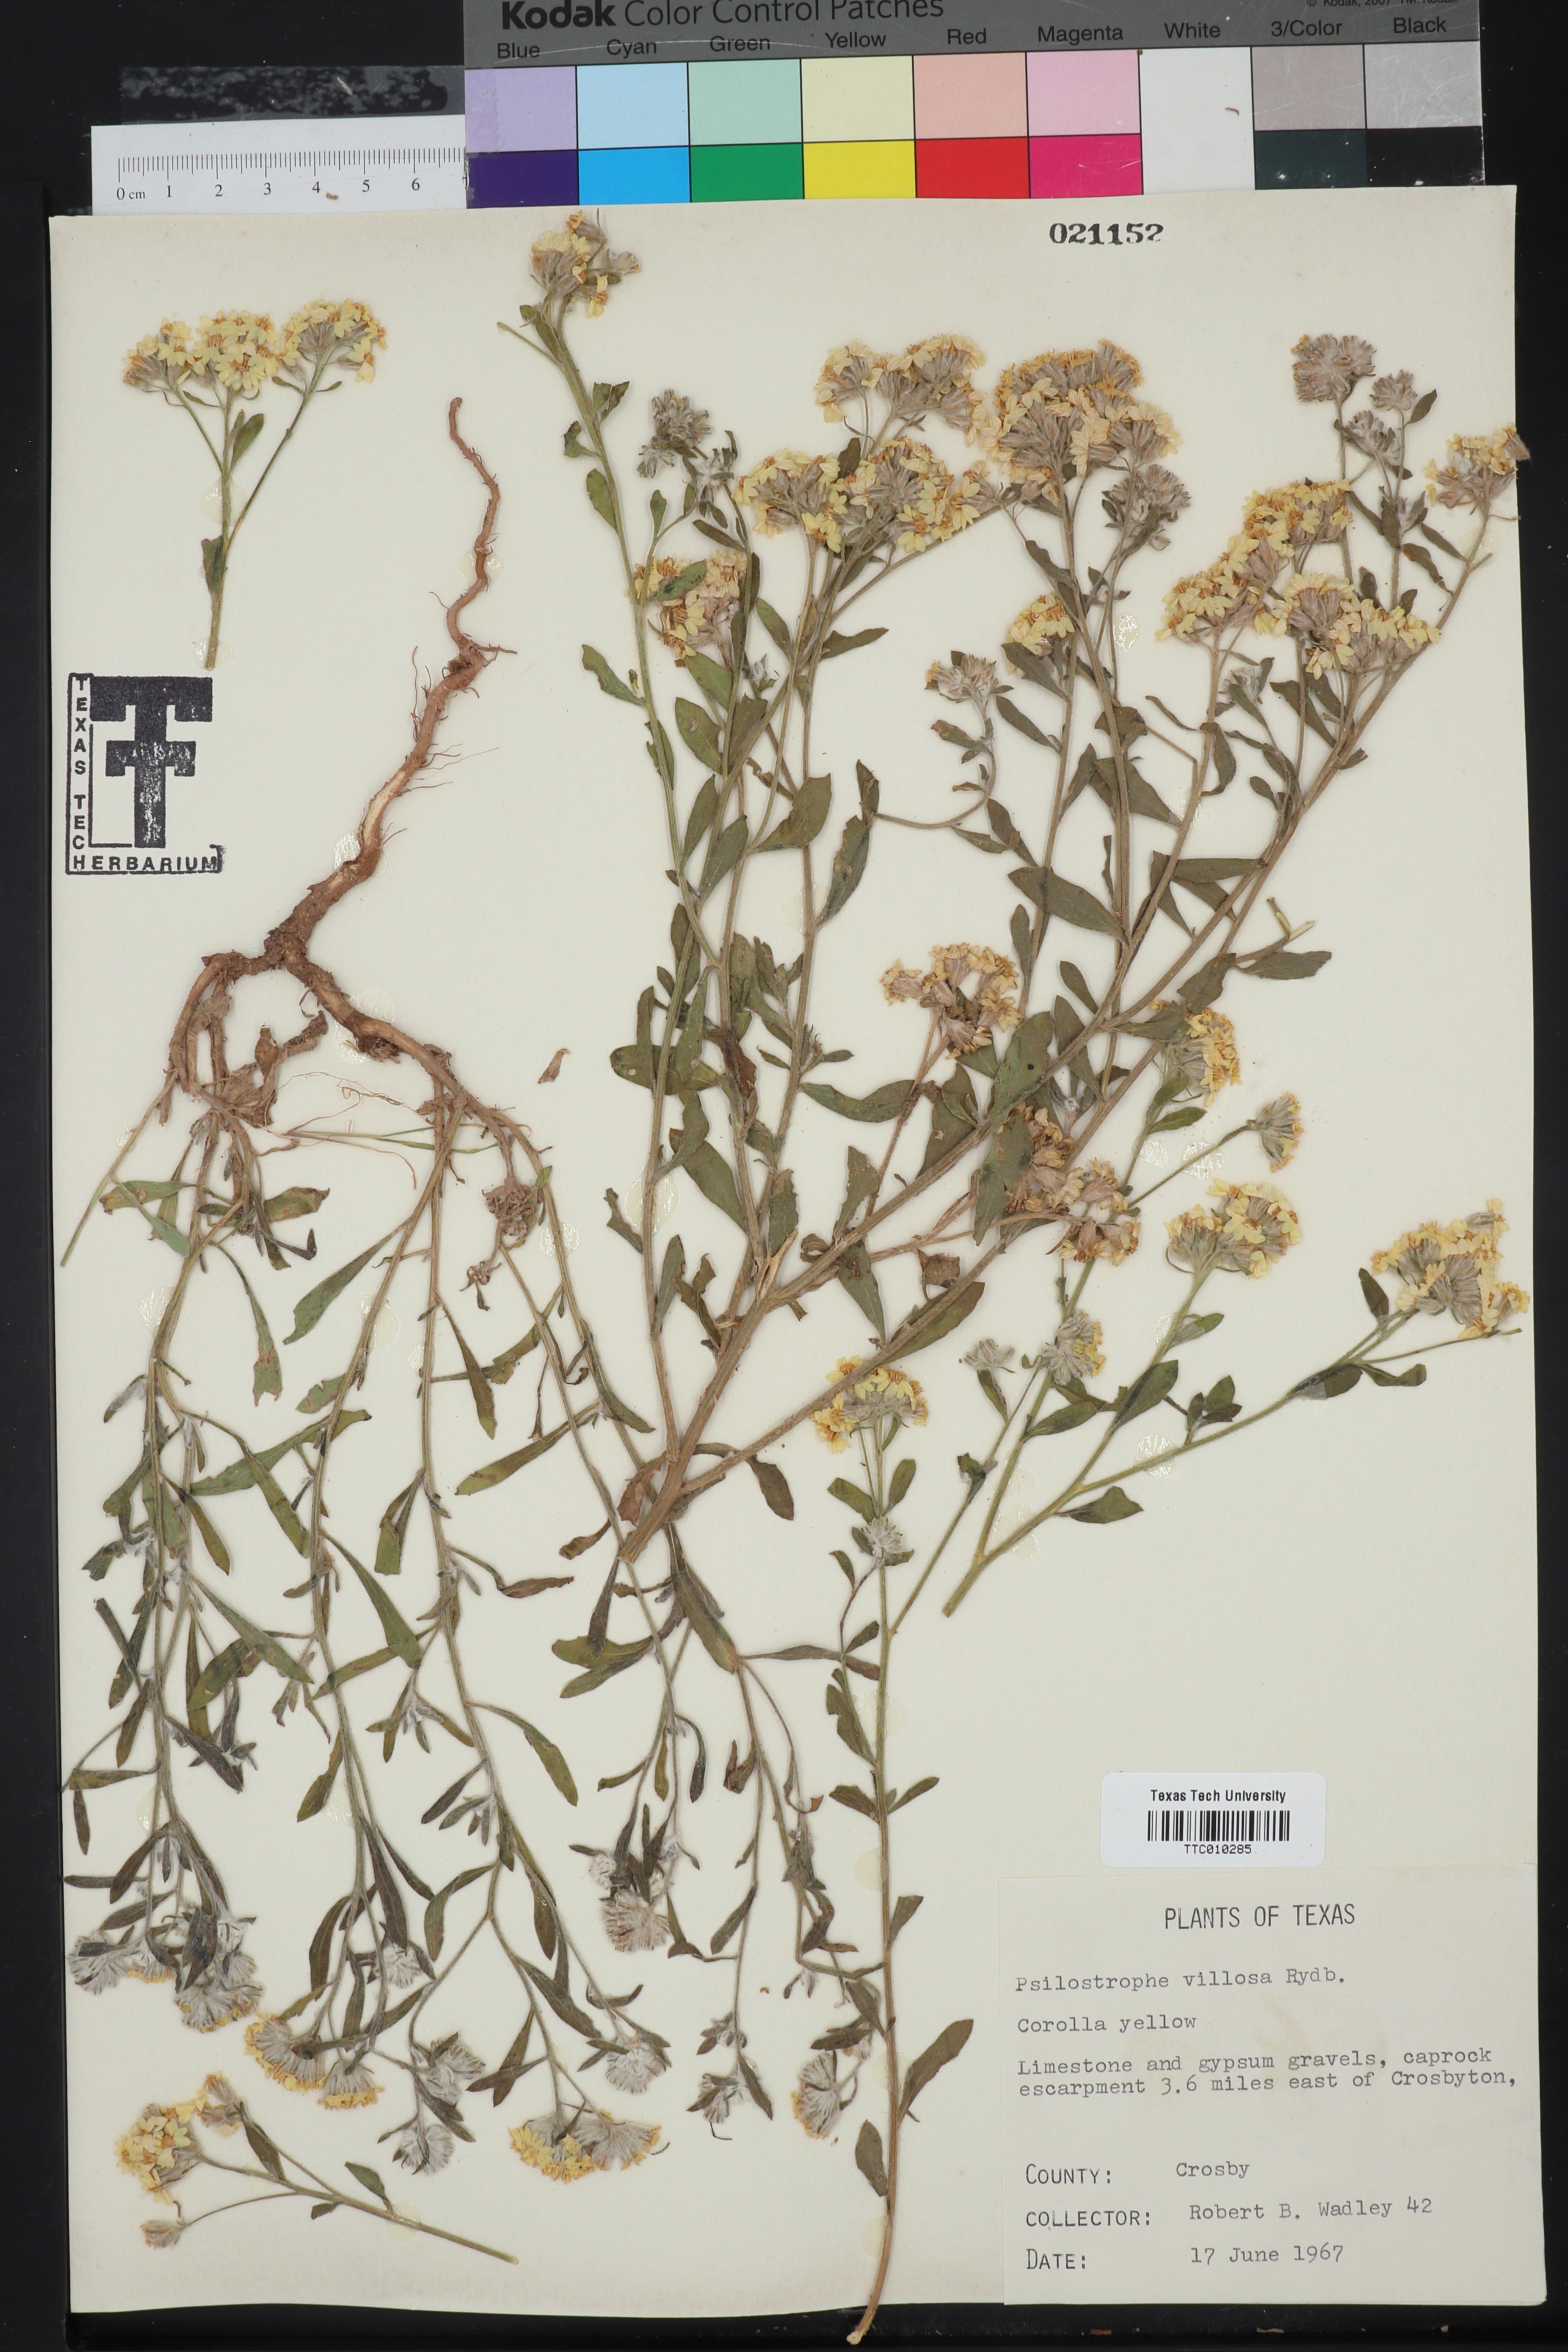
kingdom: Plantae
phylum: Tracheophyta
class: Magnoliopsida
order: Asterales
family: Asteraceae
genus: Psilostrophe
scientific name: Psilostrophe villosa
